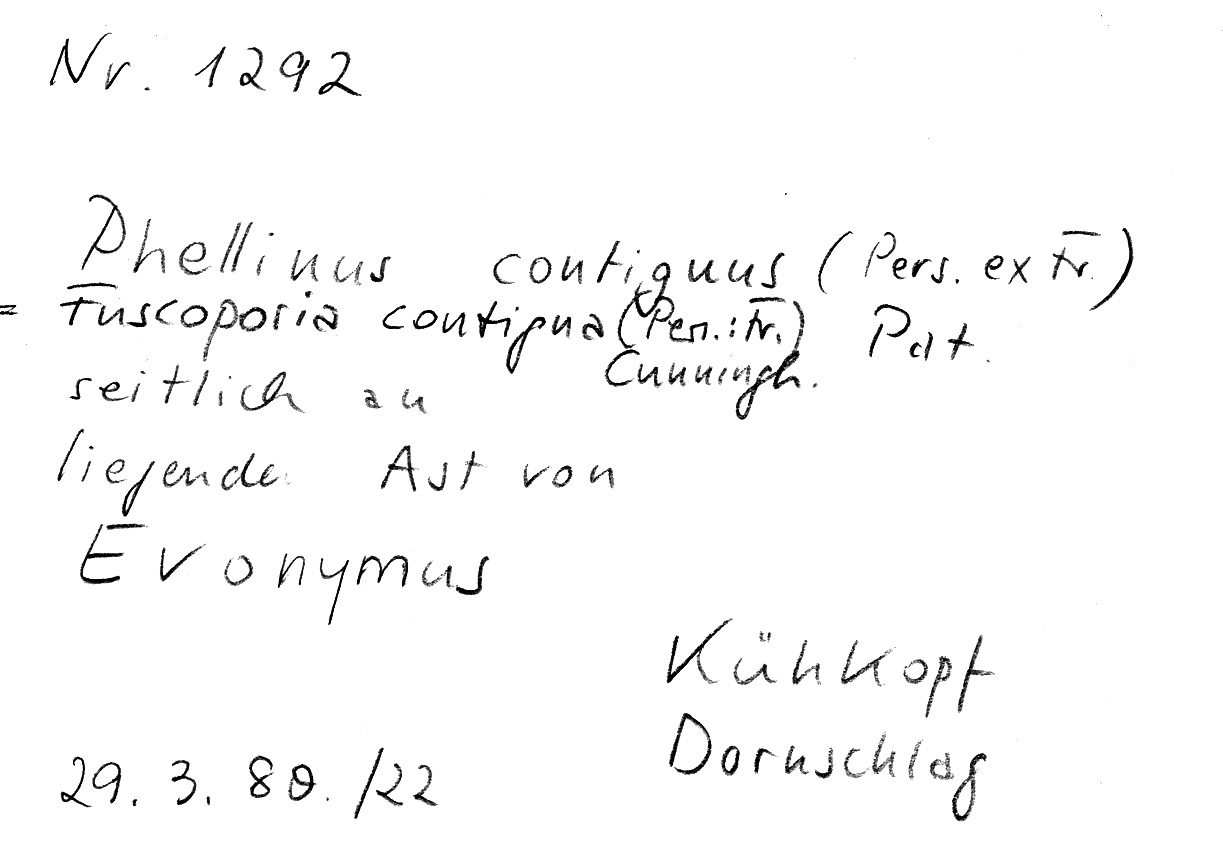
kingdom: Plantae
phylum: Tracheophyta
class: Magnoliopsida
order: Celastrales
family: Celastraceae
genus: Euonymus
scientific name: Euonymus
